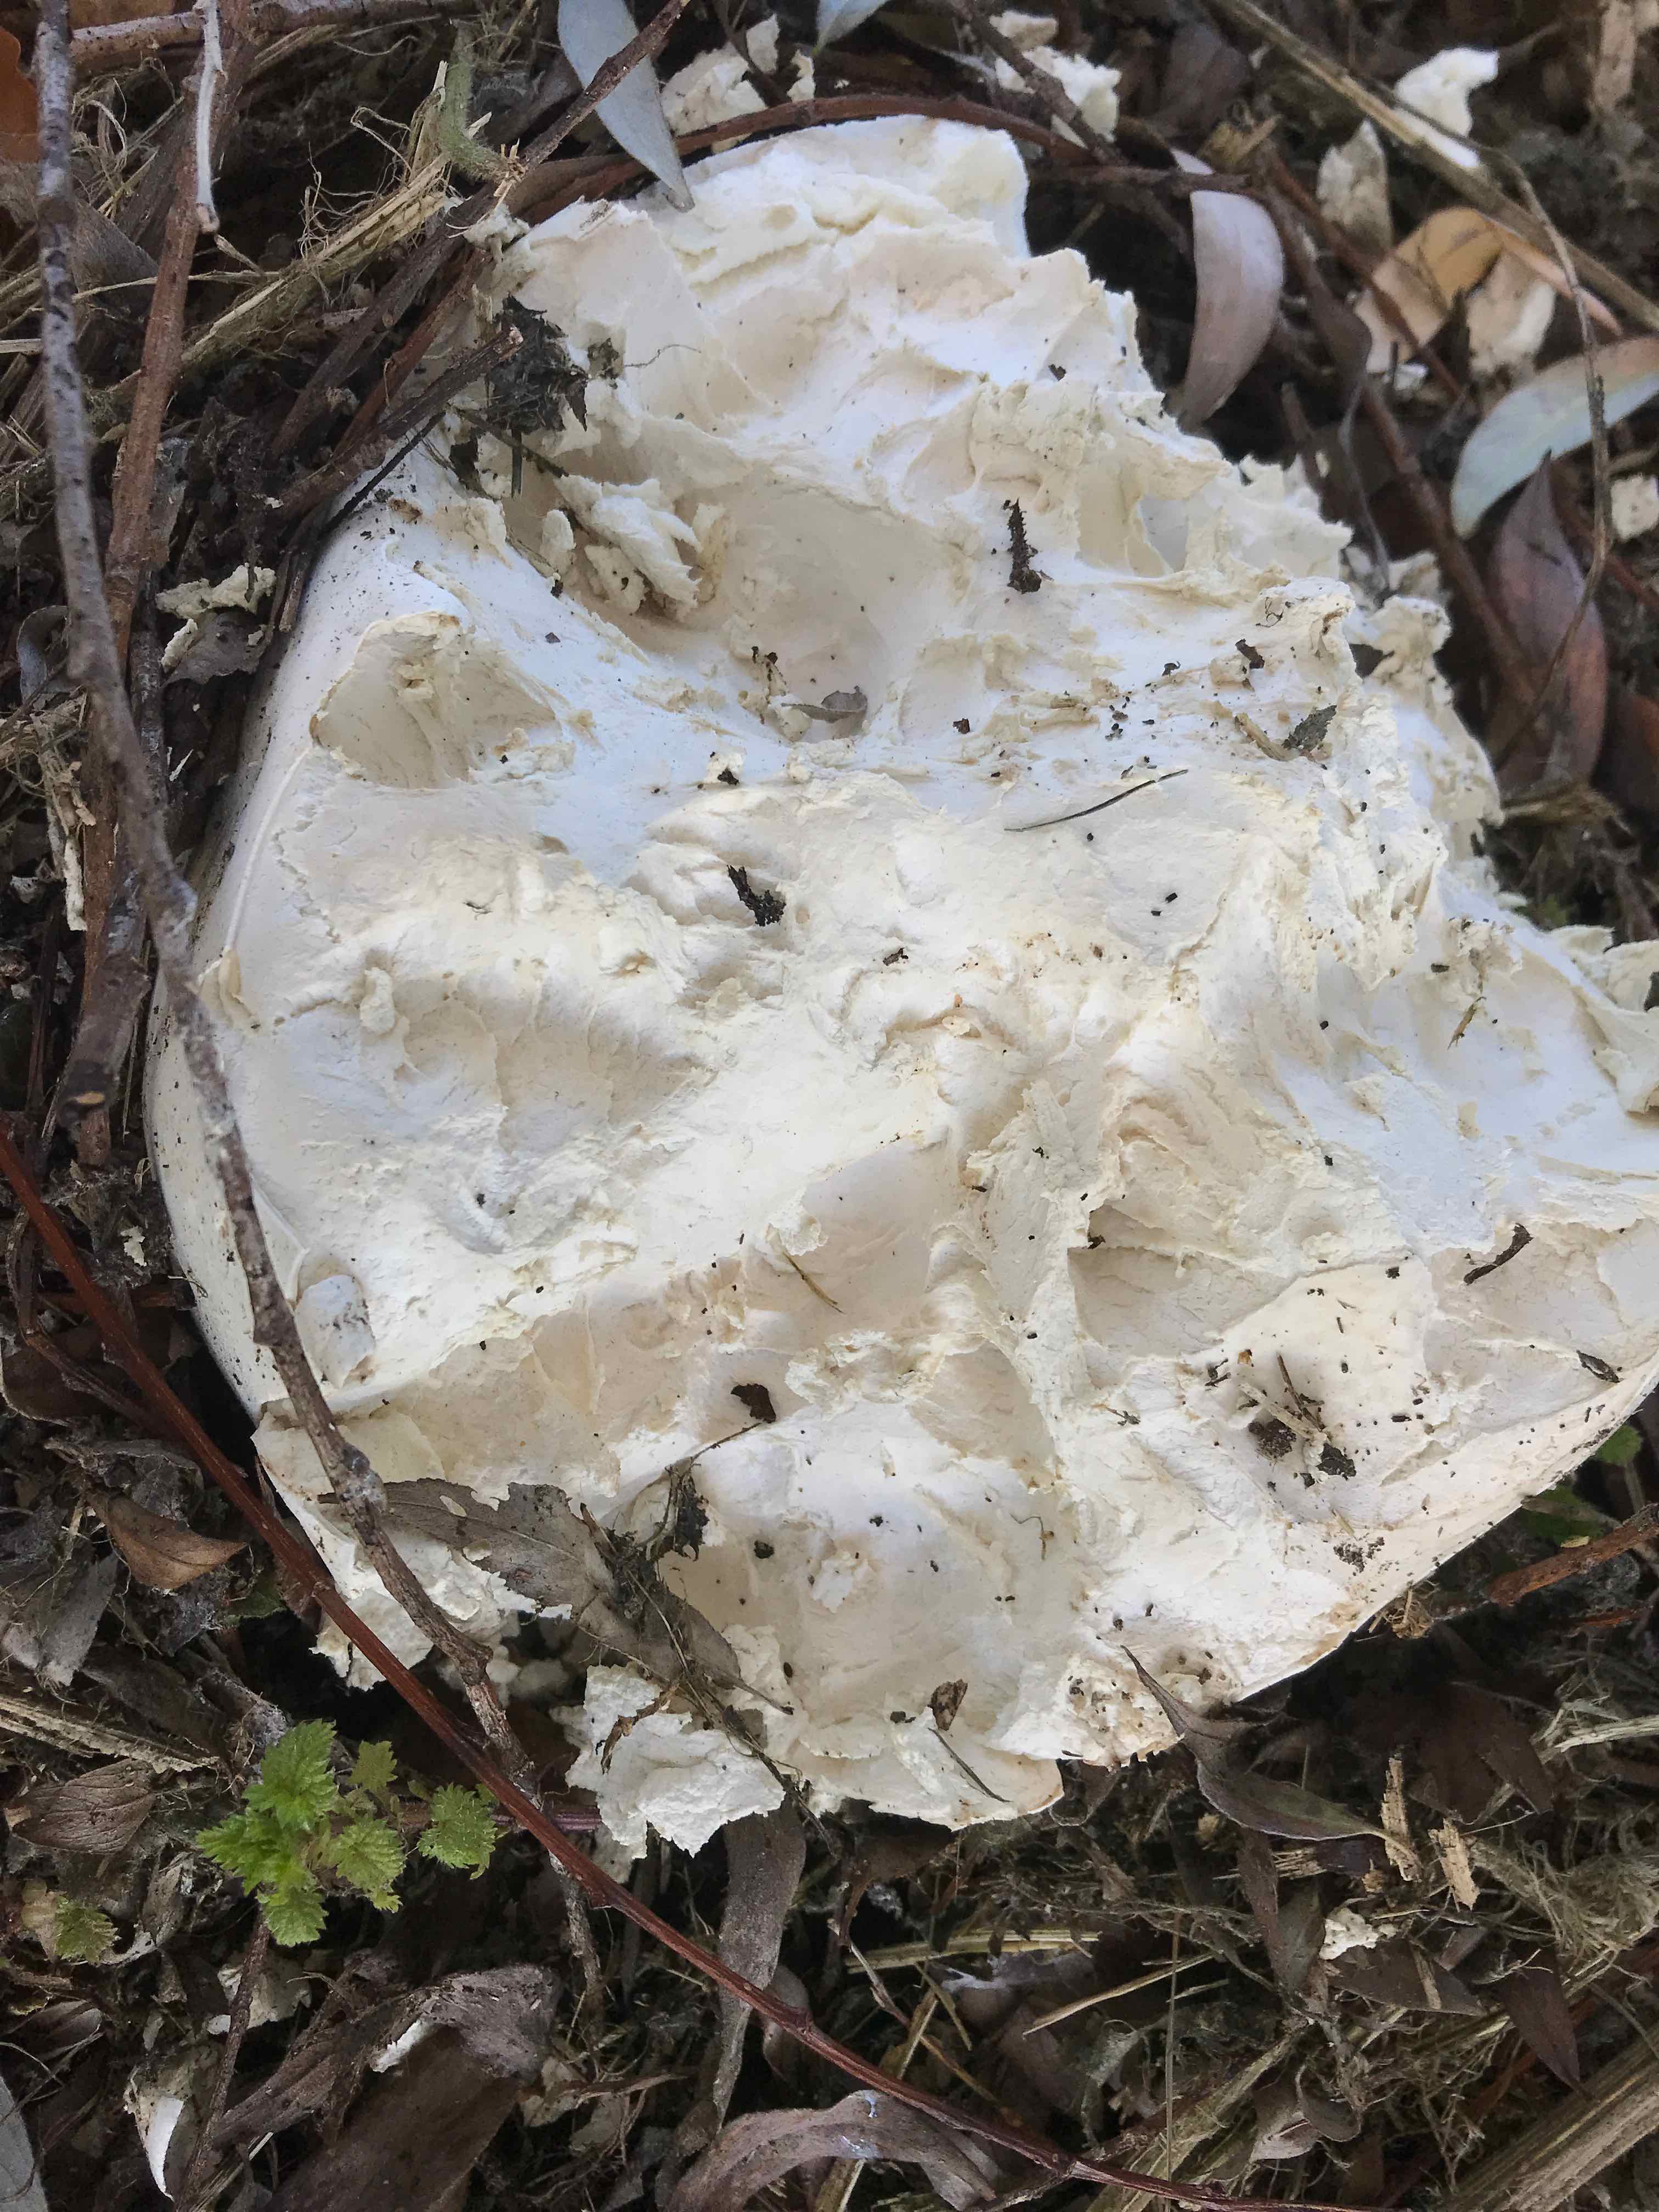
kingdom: Fungi
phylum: Basidiomycota
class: Agaricomycetes
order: Agaricales
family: Lycoperdaceae
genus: Calvatia
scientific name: Calvatia gigantea
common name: kæmpestøvbold
